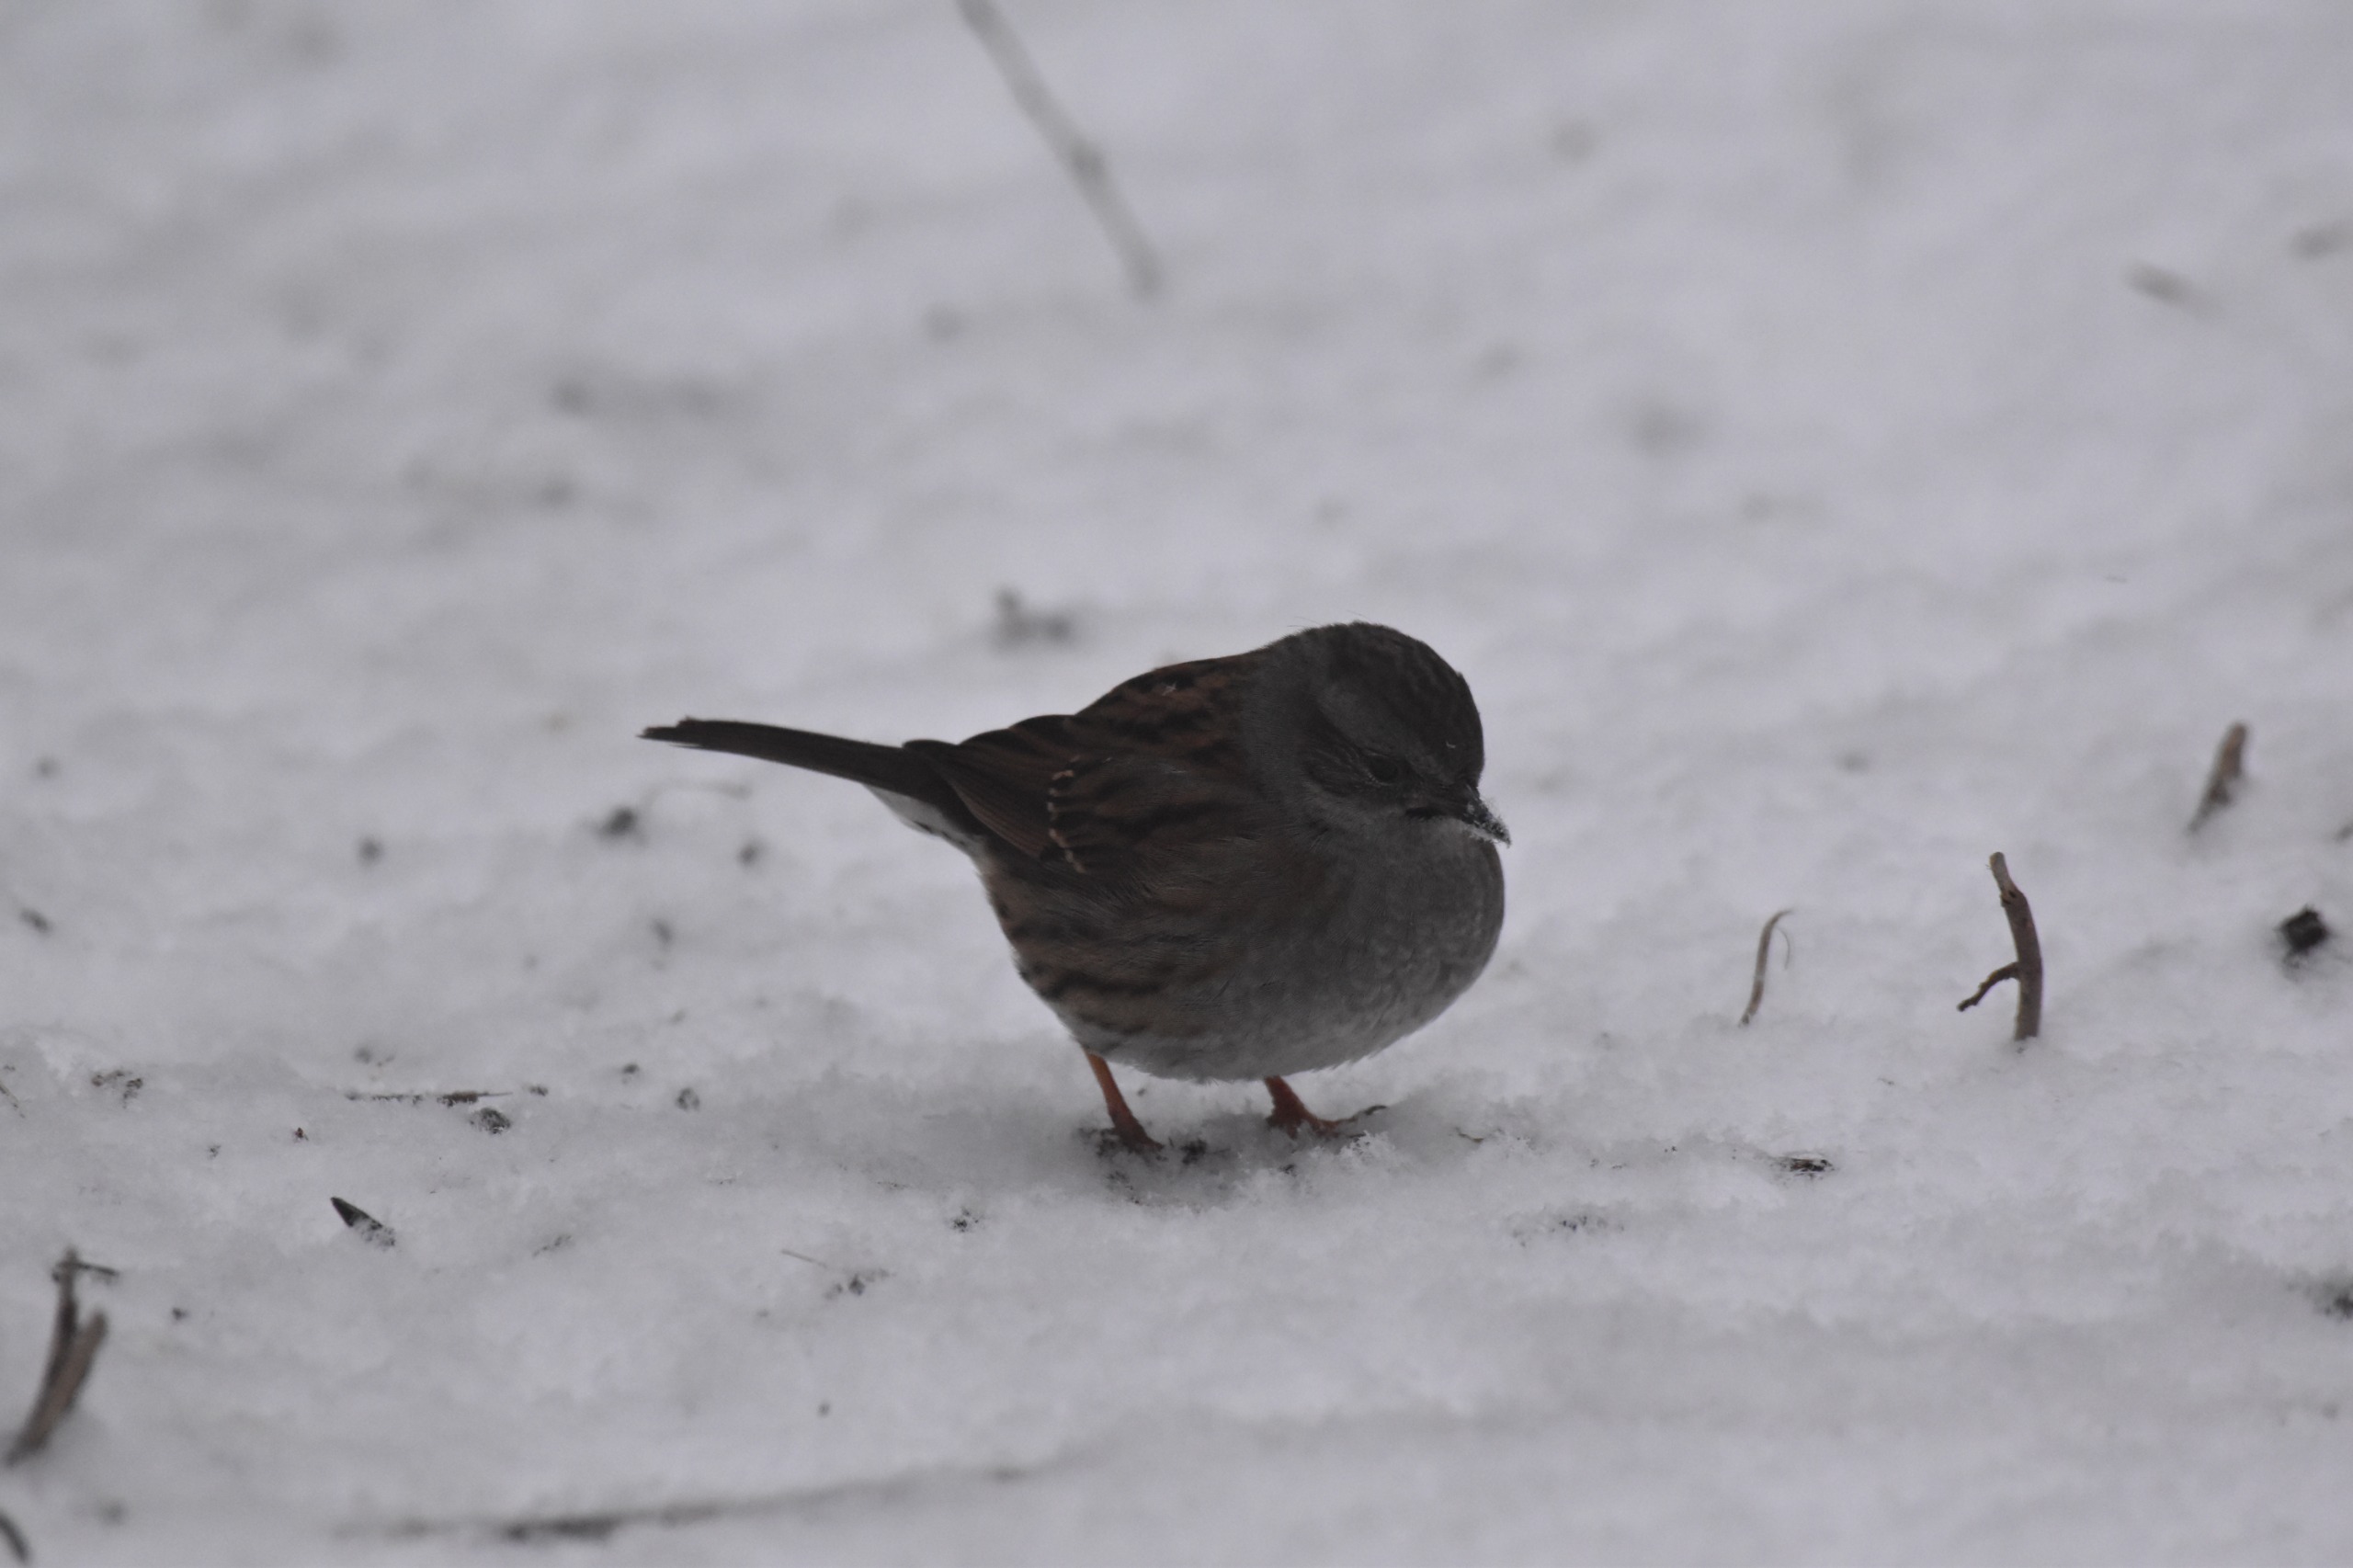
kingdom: Animalia
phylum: Chordata
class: Aves
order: Passeriformes
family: Prunellidae
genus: Prunella
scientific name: Prunella modularis
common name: Jernspurv
